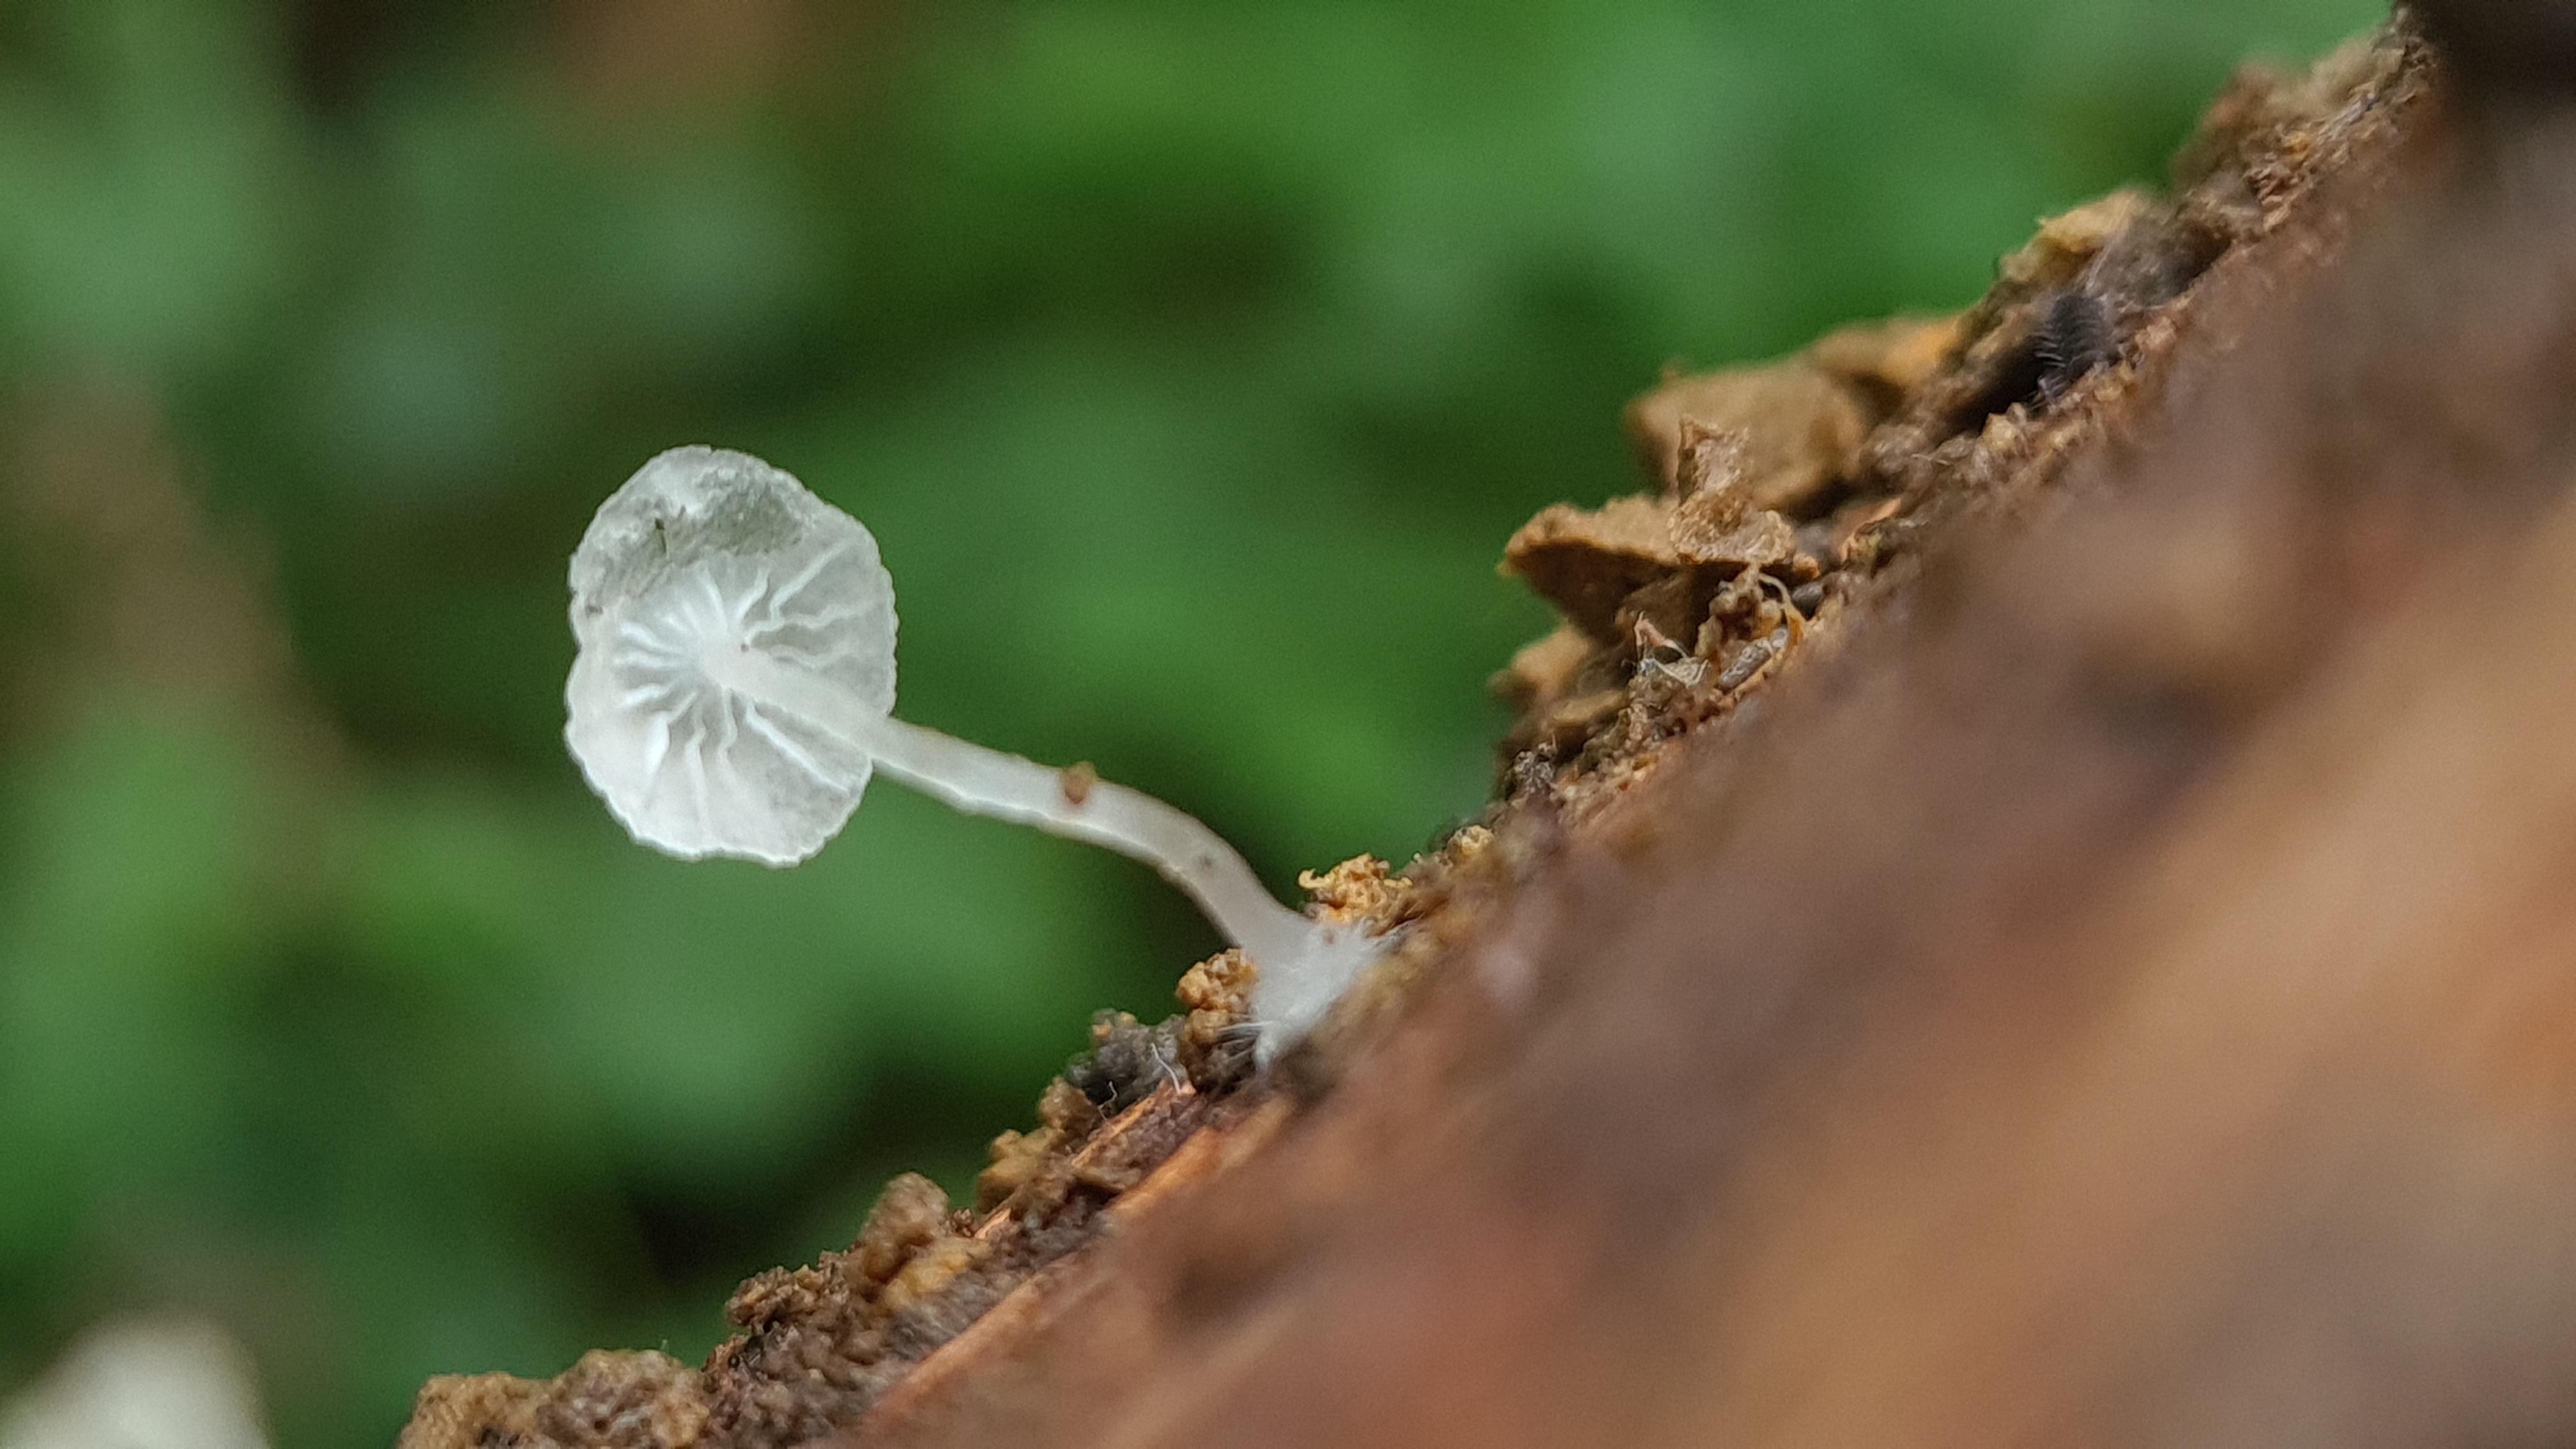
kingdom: Fungi
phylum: Basidiomycota
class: Agaricomycetes
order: Agaricales
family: Tricholomataceae
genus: Delicatula
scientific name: Delicatula integrella
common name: slørhuesvamp
